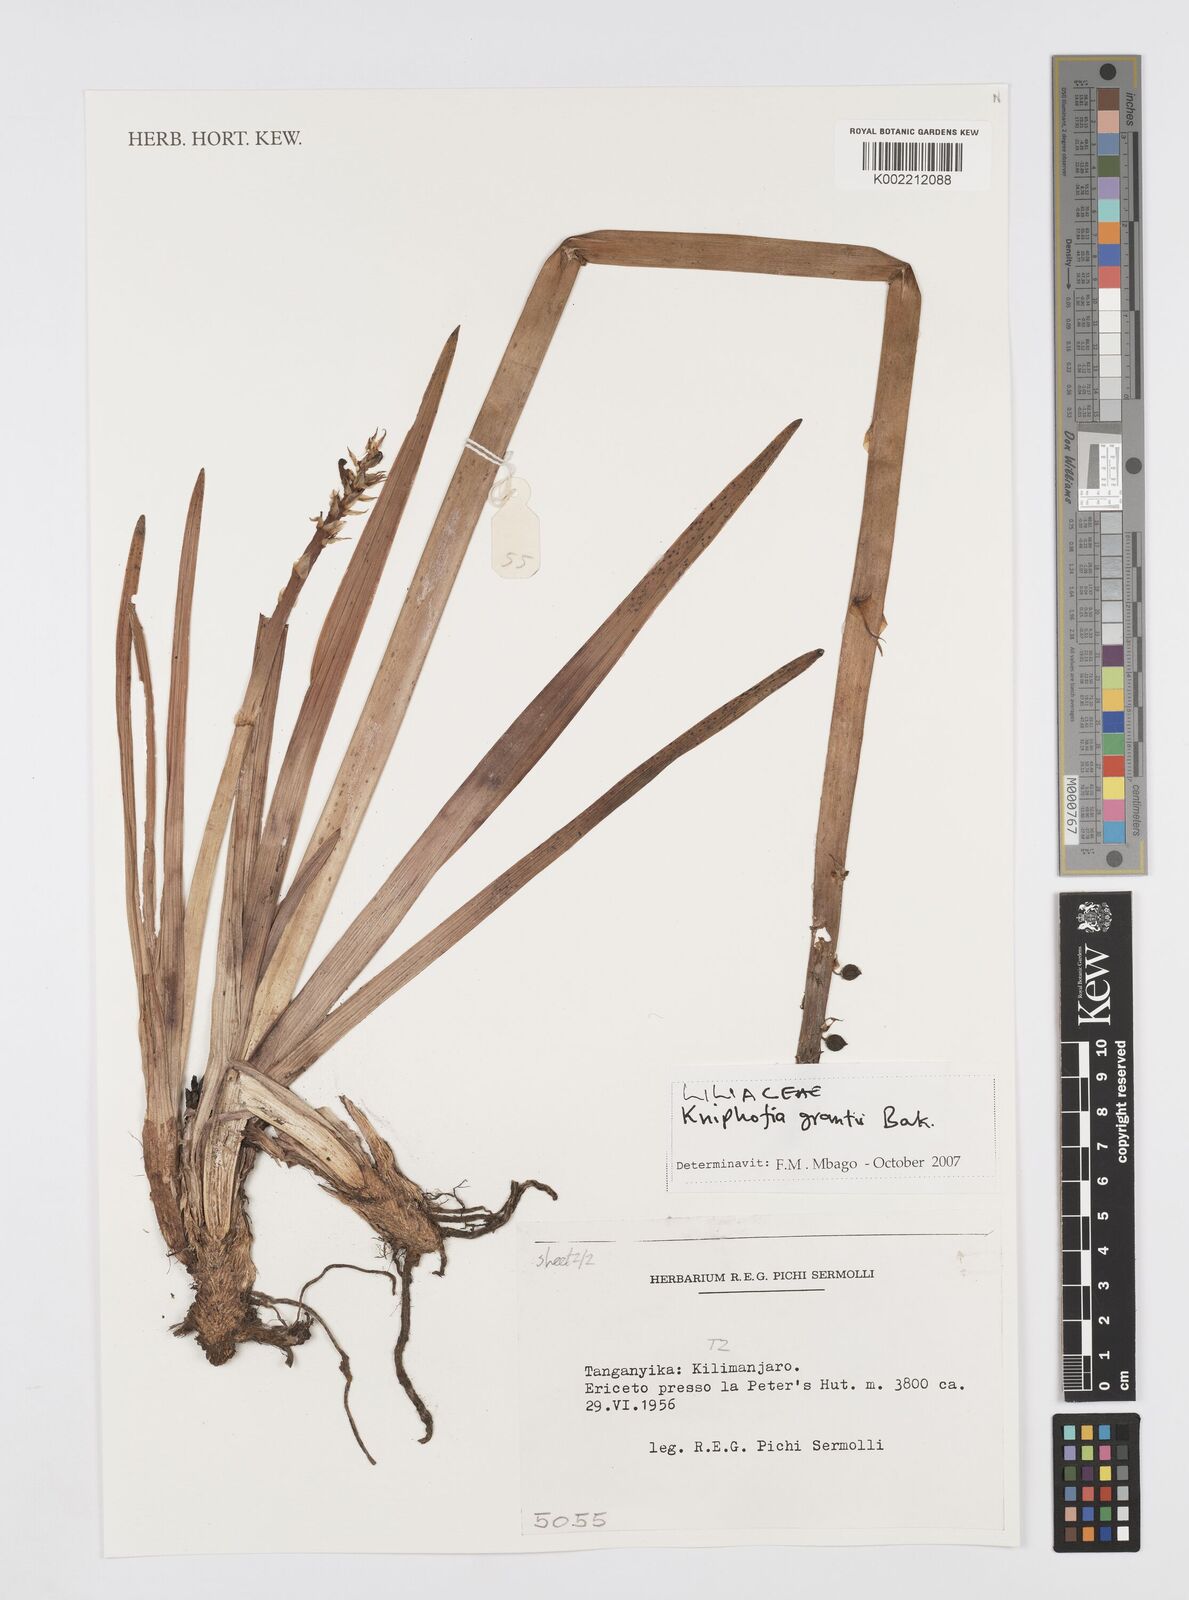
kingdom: Plantae
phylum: Tracheophyta
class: Liliopsida
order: Asparagales
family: Asphodelaceae
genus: Kniphofia
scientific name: Kniphofia grantii
